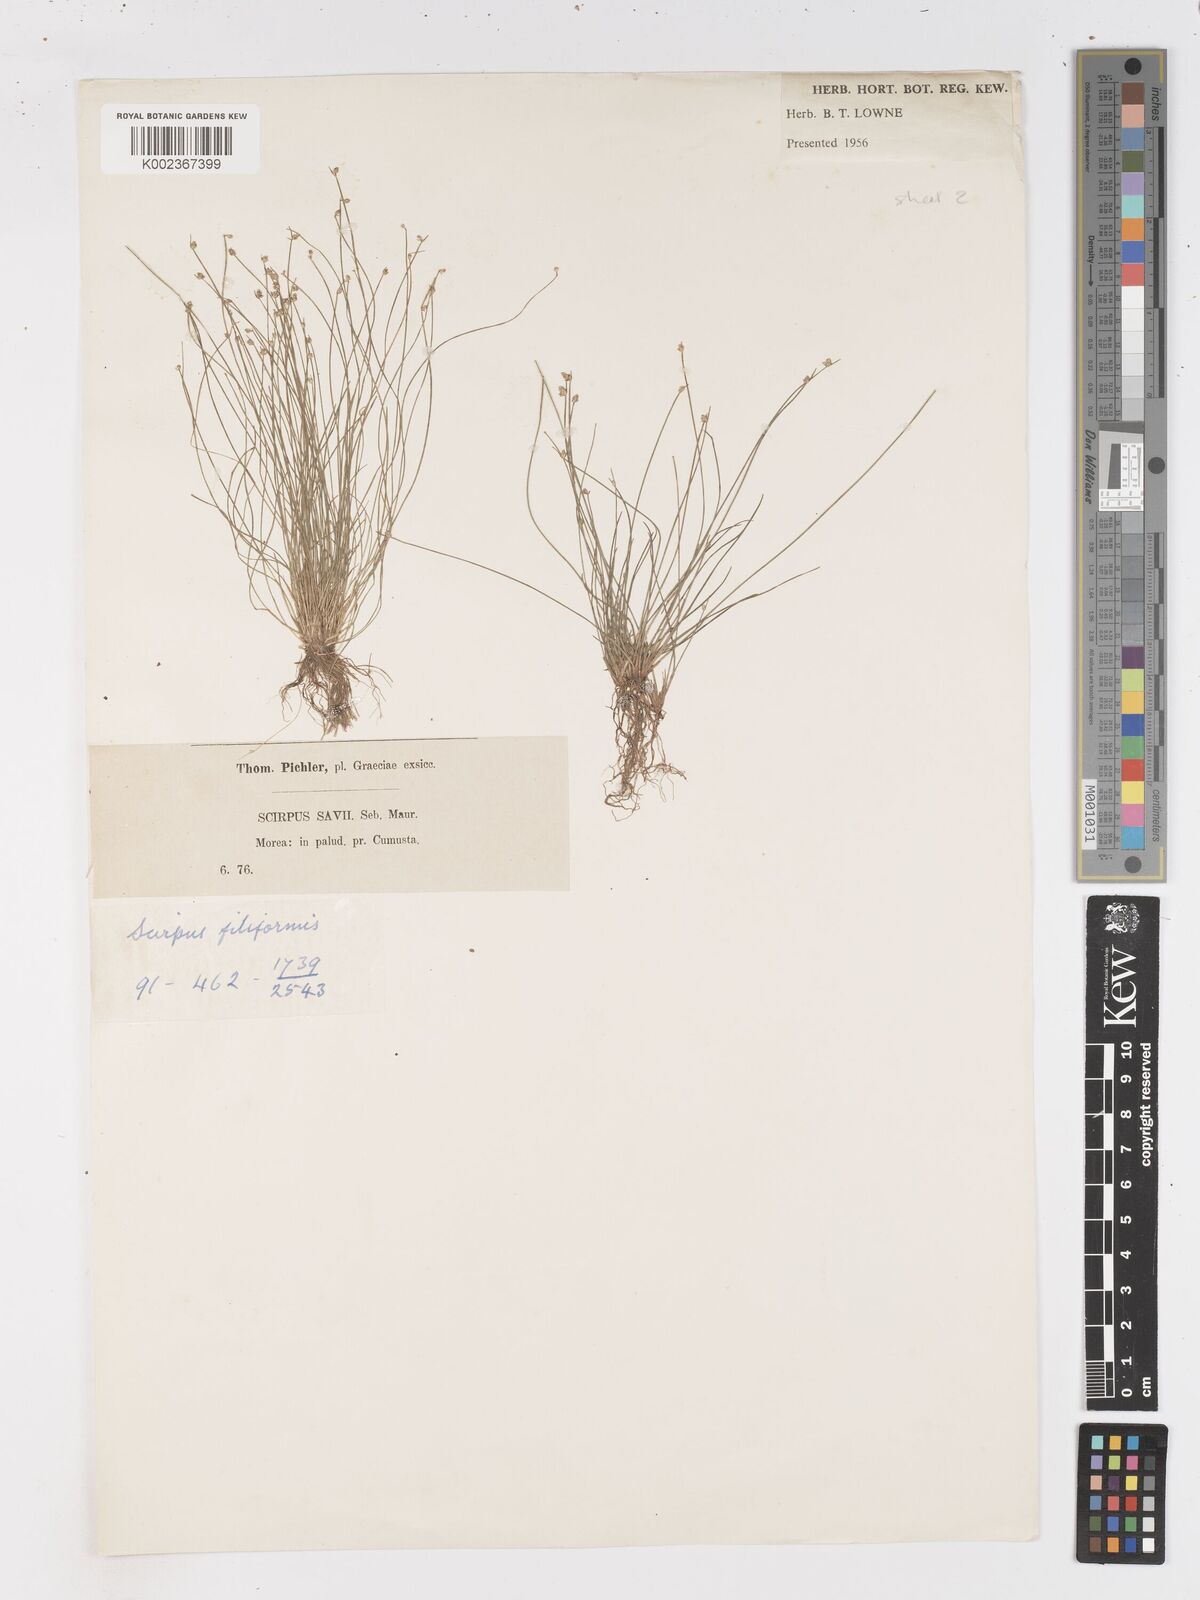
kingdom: Plantae
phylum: Tracheophyta
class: Liliopsida
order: Poales
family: Cyperaceae
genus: Isolepis
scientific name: Isolepis cernua
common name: Slender club-rush
